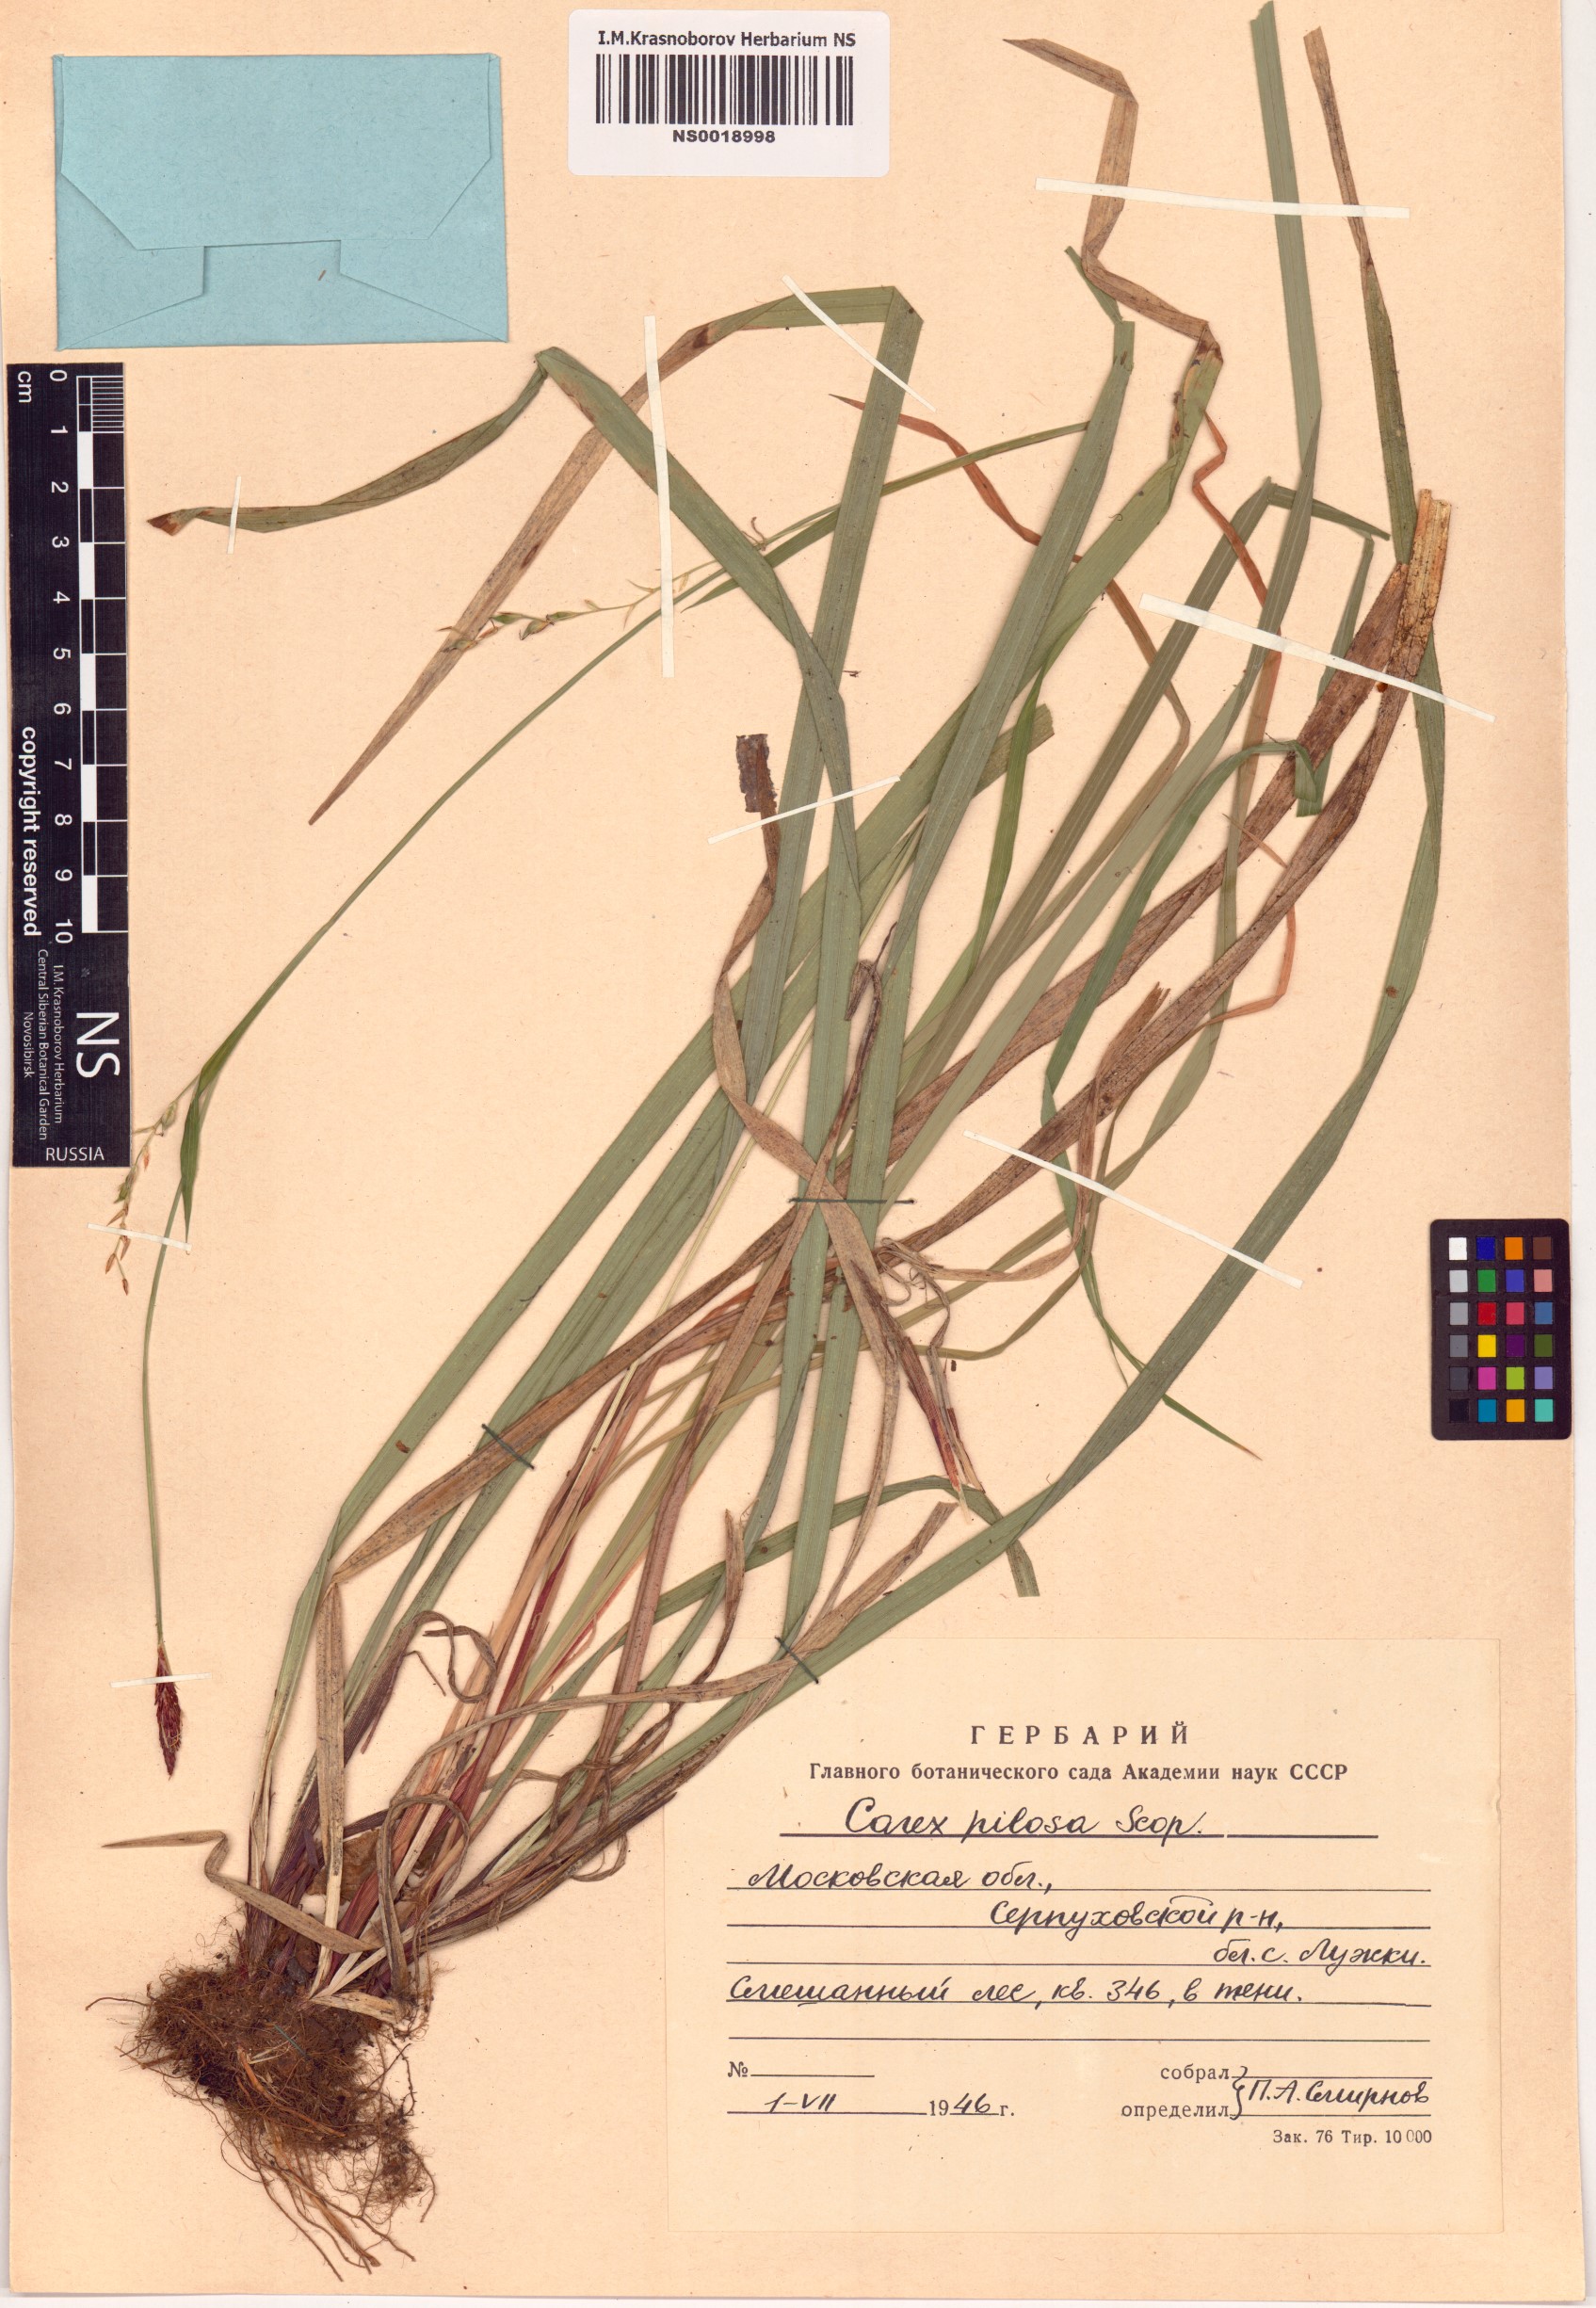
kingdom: Plantae
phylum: Tracheophyta
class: Liliopsida
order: Poales
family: Cyperaceae
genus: Carex
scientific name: Carex pilosa
